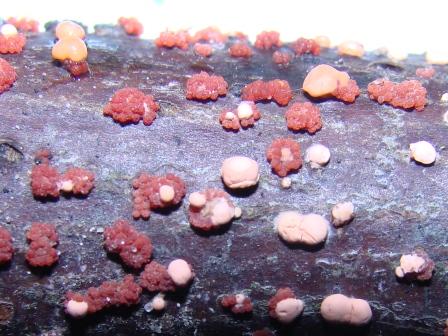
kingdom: Fungi
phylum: Ascomycota
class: Sordariomycetes
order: Hypocreales
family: Nectriaceae
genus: Nectria
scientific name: Nectria cinnabarina
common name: almindelig cinnobersvamp
